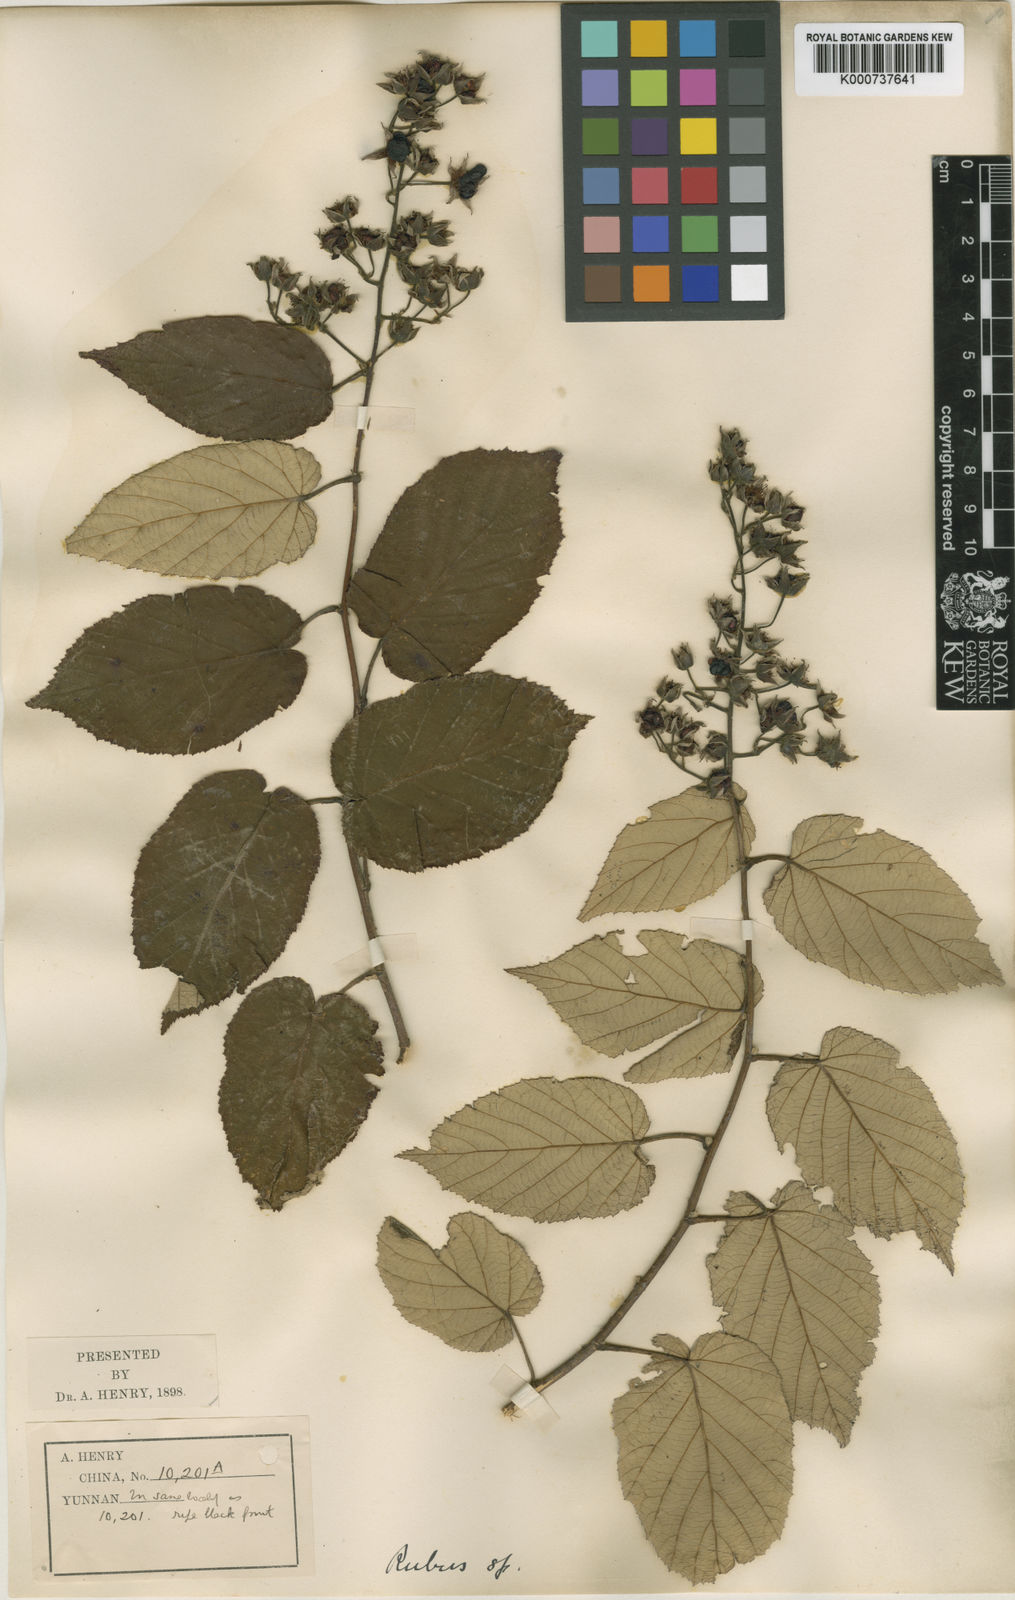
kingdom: Plantae
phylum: Tracheophyta
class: Magnoliopsida
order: Rosales
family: Rosaceae
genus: Rubus
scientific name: Rubus xanthoneurus
